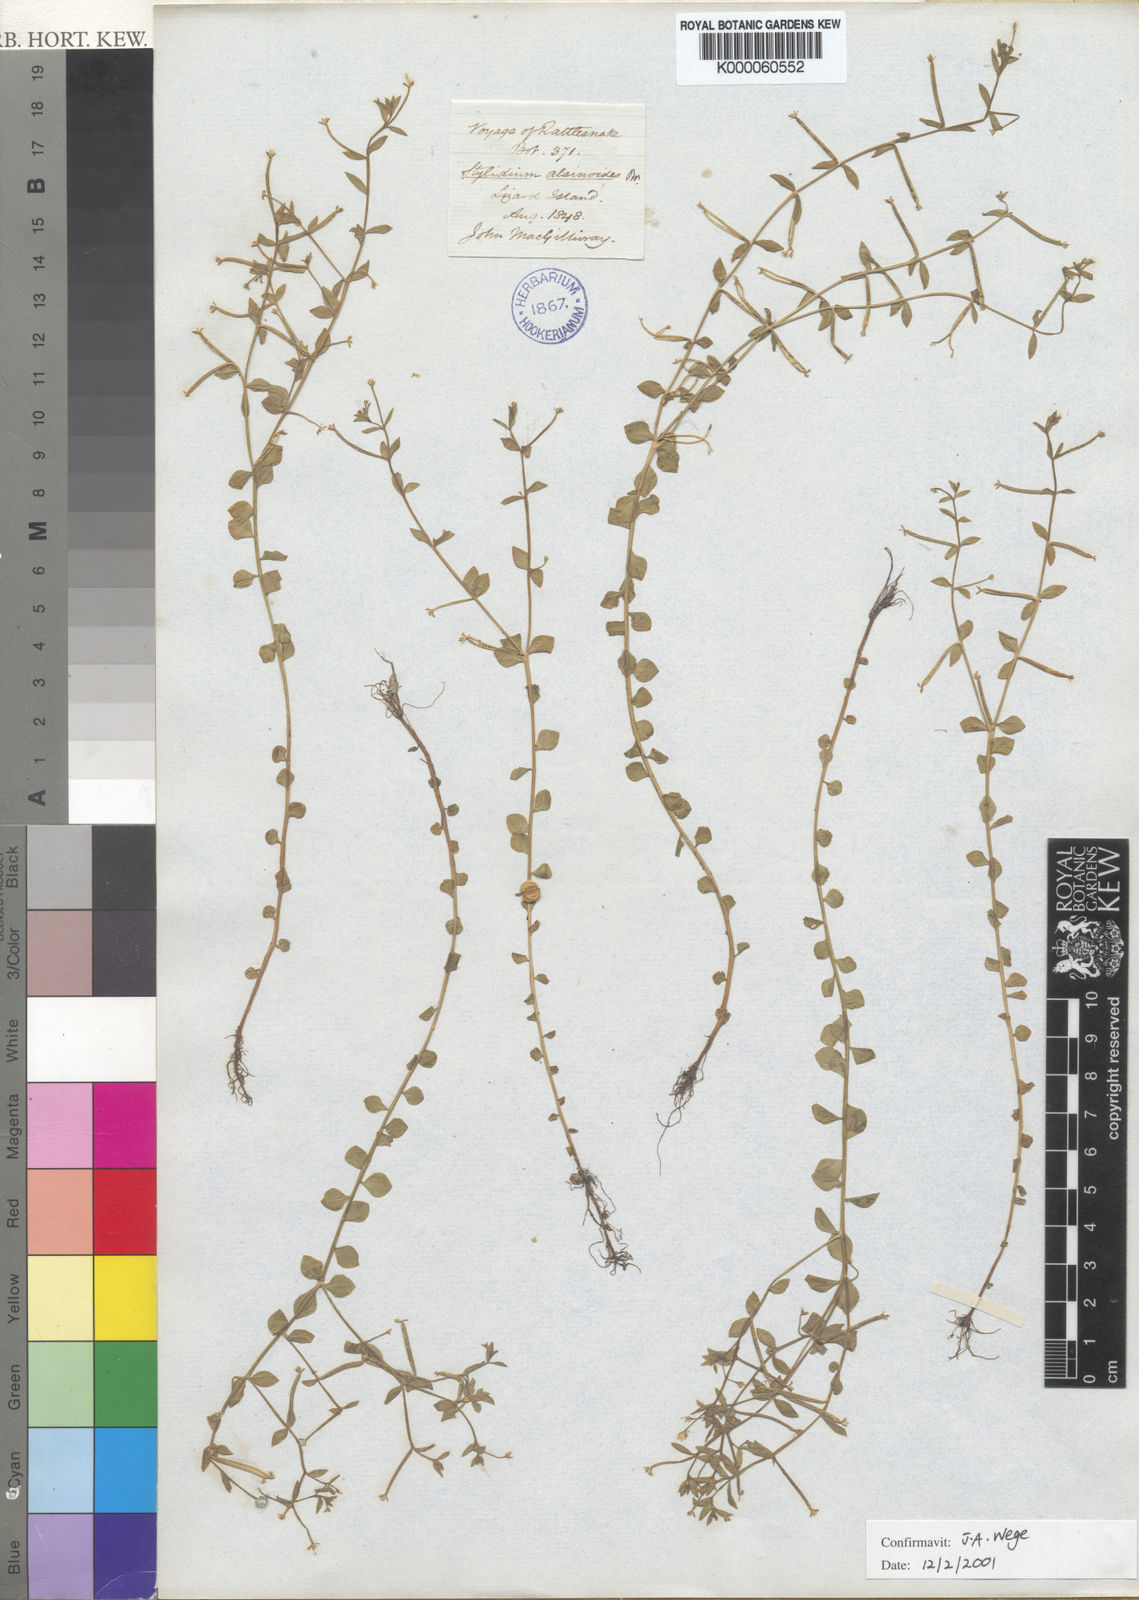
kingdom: Plantae
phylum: Tracheophyta
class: Magnoliopsida
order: Asterales
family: Stylidiaceae
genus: Stylidium
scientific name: Stylidium alsinoides
